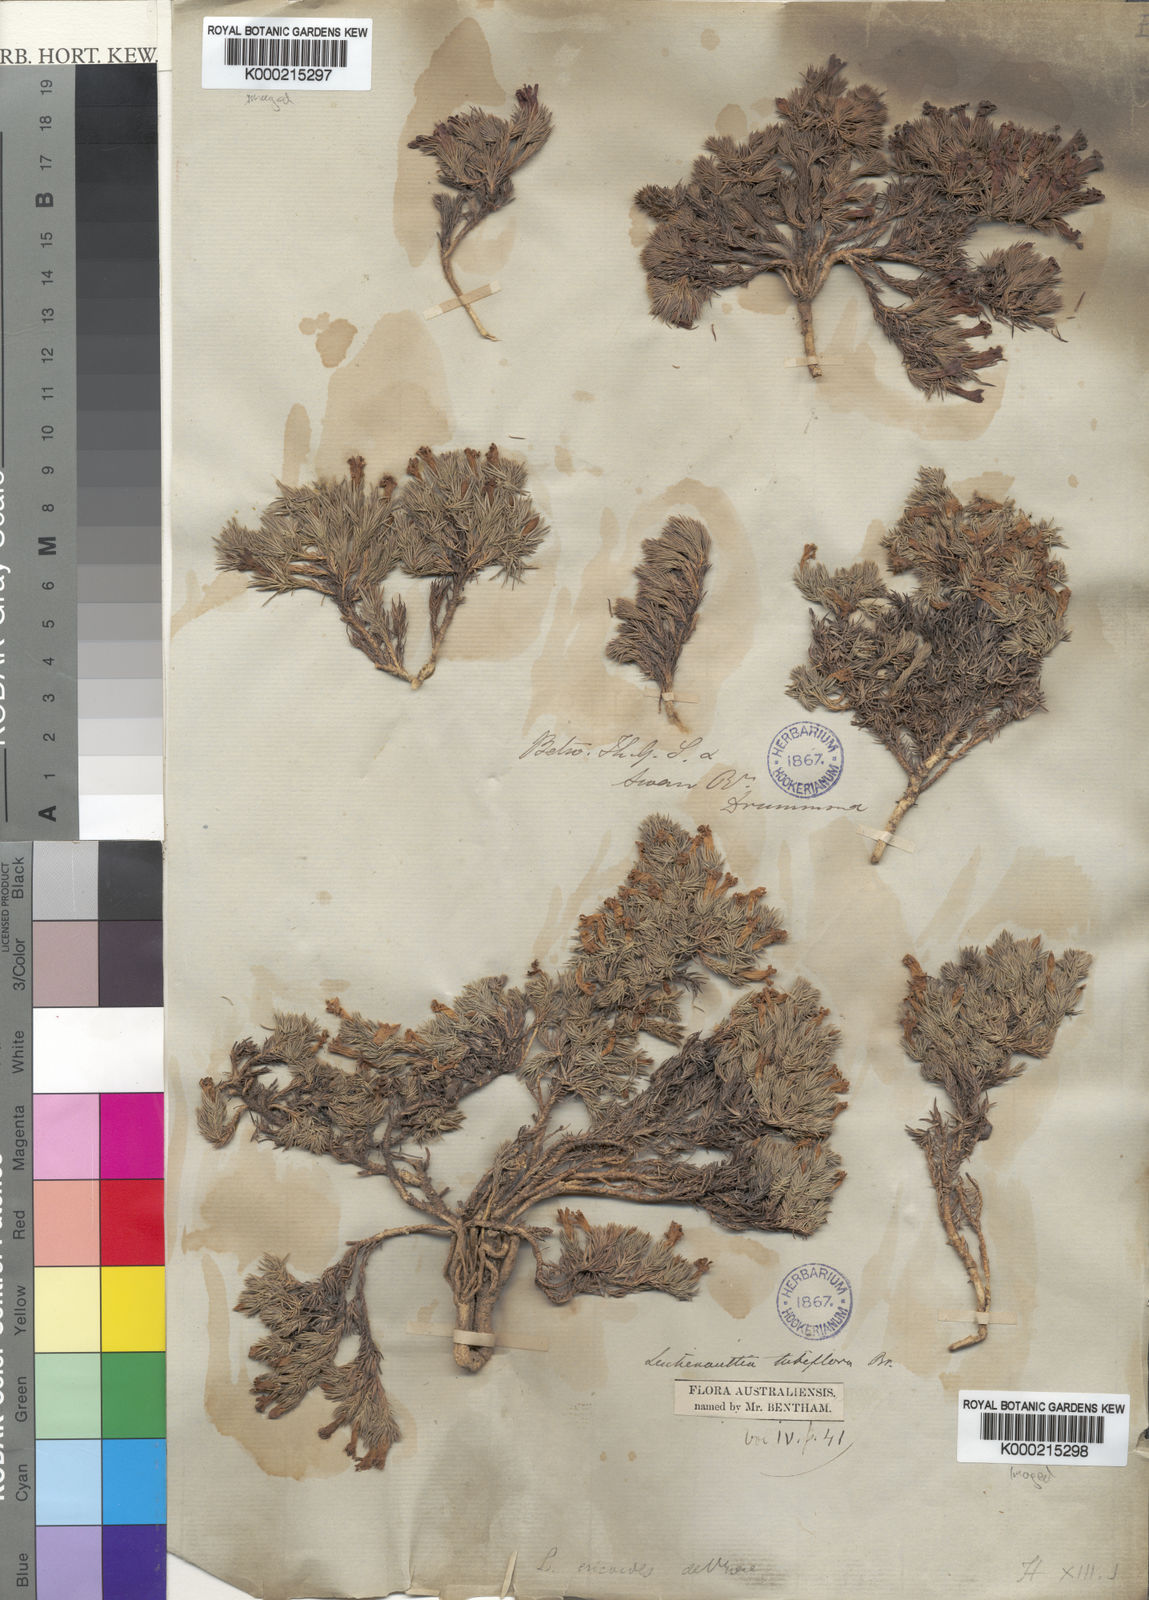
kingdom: Plantae
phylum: Tracheophyta
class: Magnoliopsida
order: Asterales
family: Goodeniaceae
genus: Leschenaultia
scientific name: Leschenaultia tubiflora
